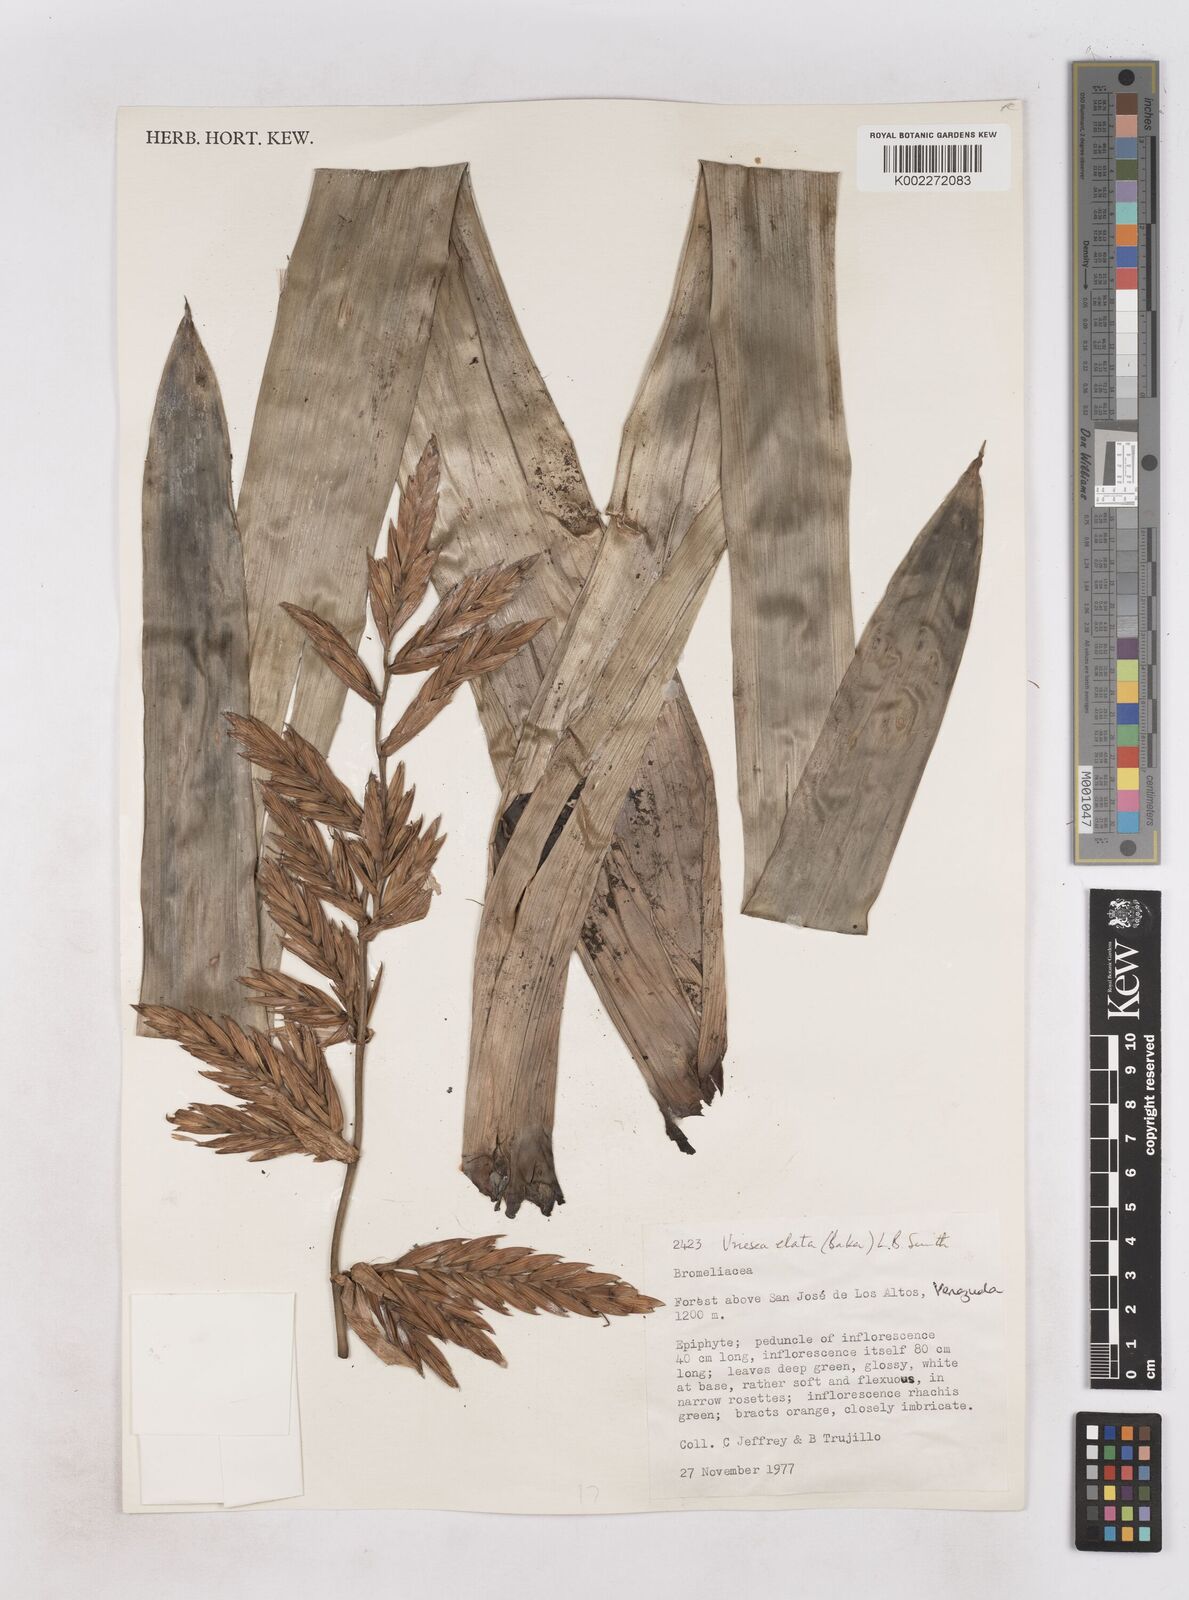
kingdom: Plantae
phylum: Tracheophyta
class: Liliopsida
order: Poales
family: Bromeliaceae
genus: Vriesea
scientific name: Vriesea elata
